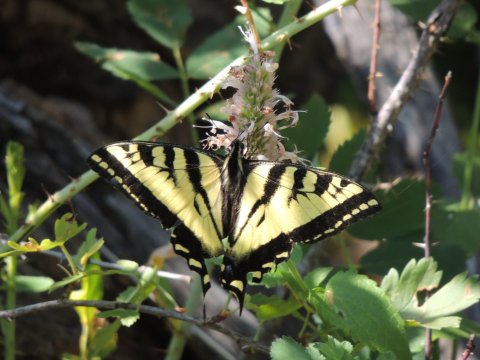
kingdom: Animalia
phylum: Arthropoda
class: Insecta
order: Lepidoptera
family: Papilionidae
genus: Pterourus
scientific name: Pterourus rutulus
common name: Western Tiger Swallowtail
